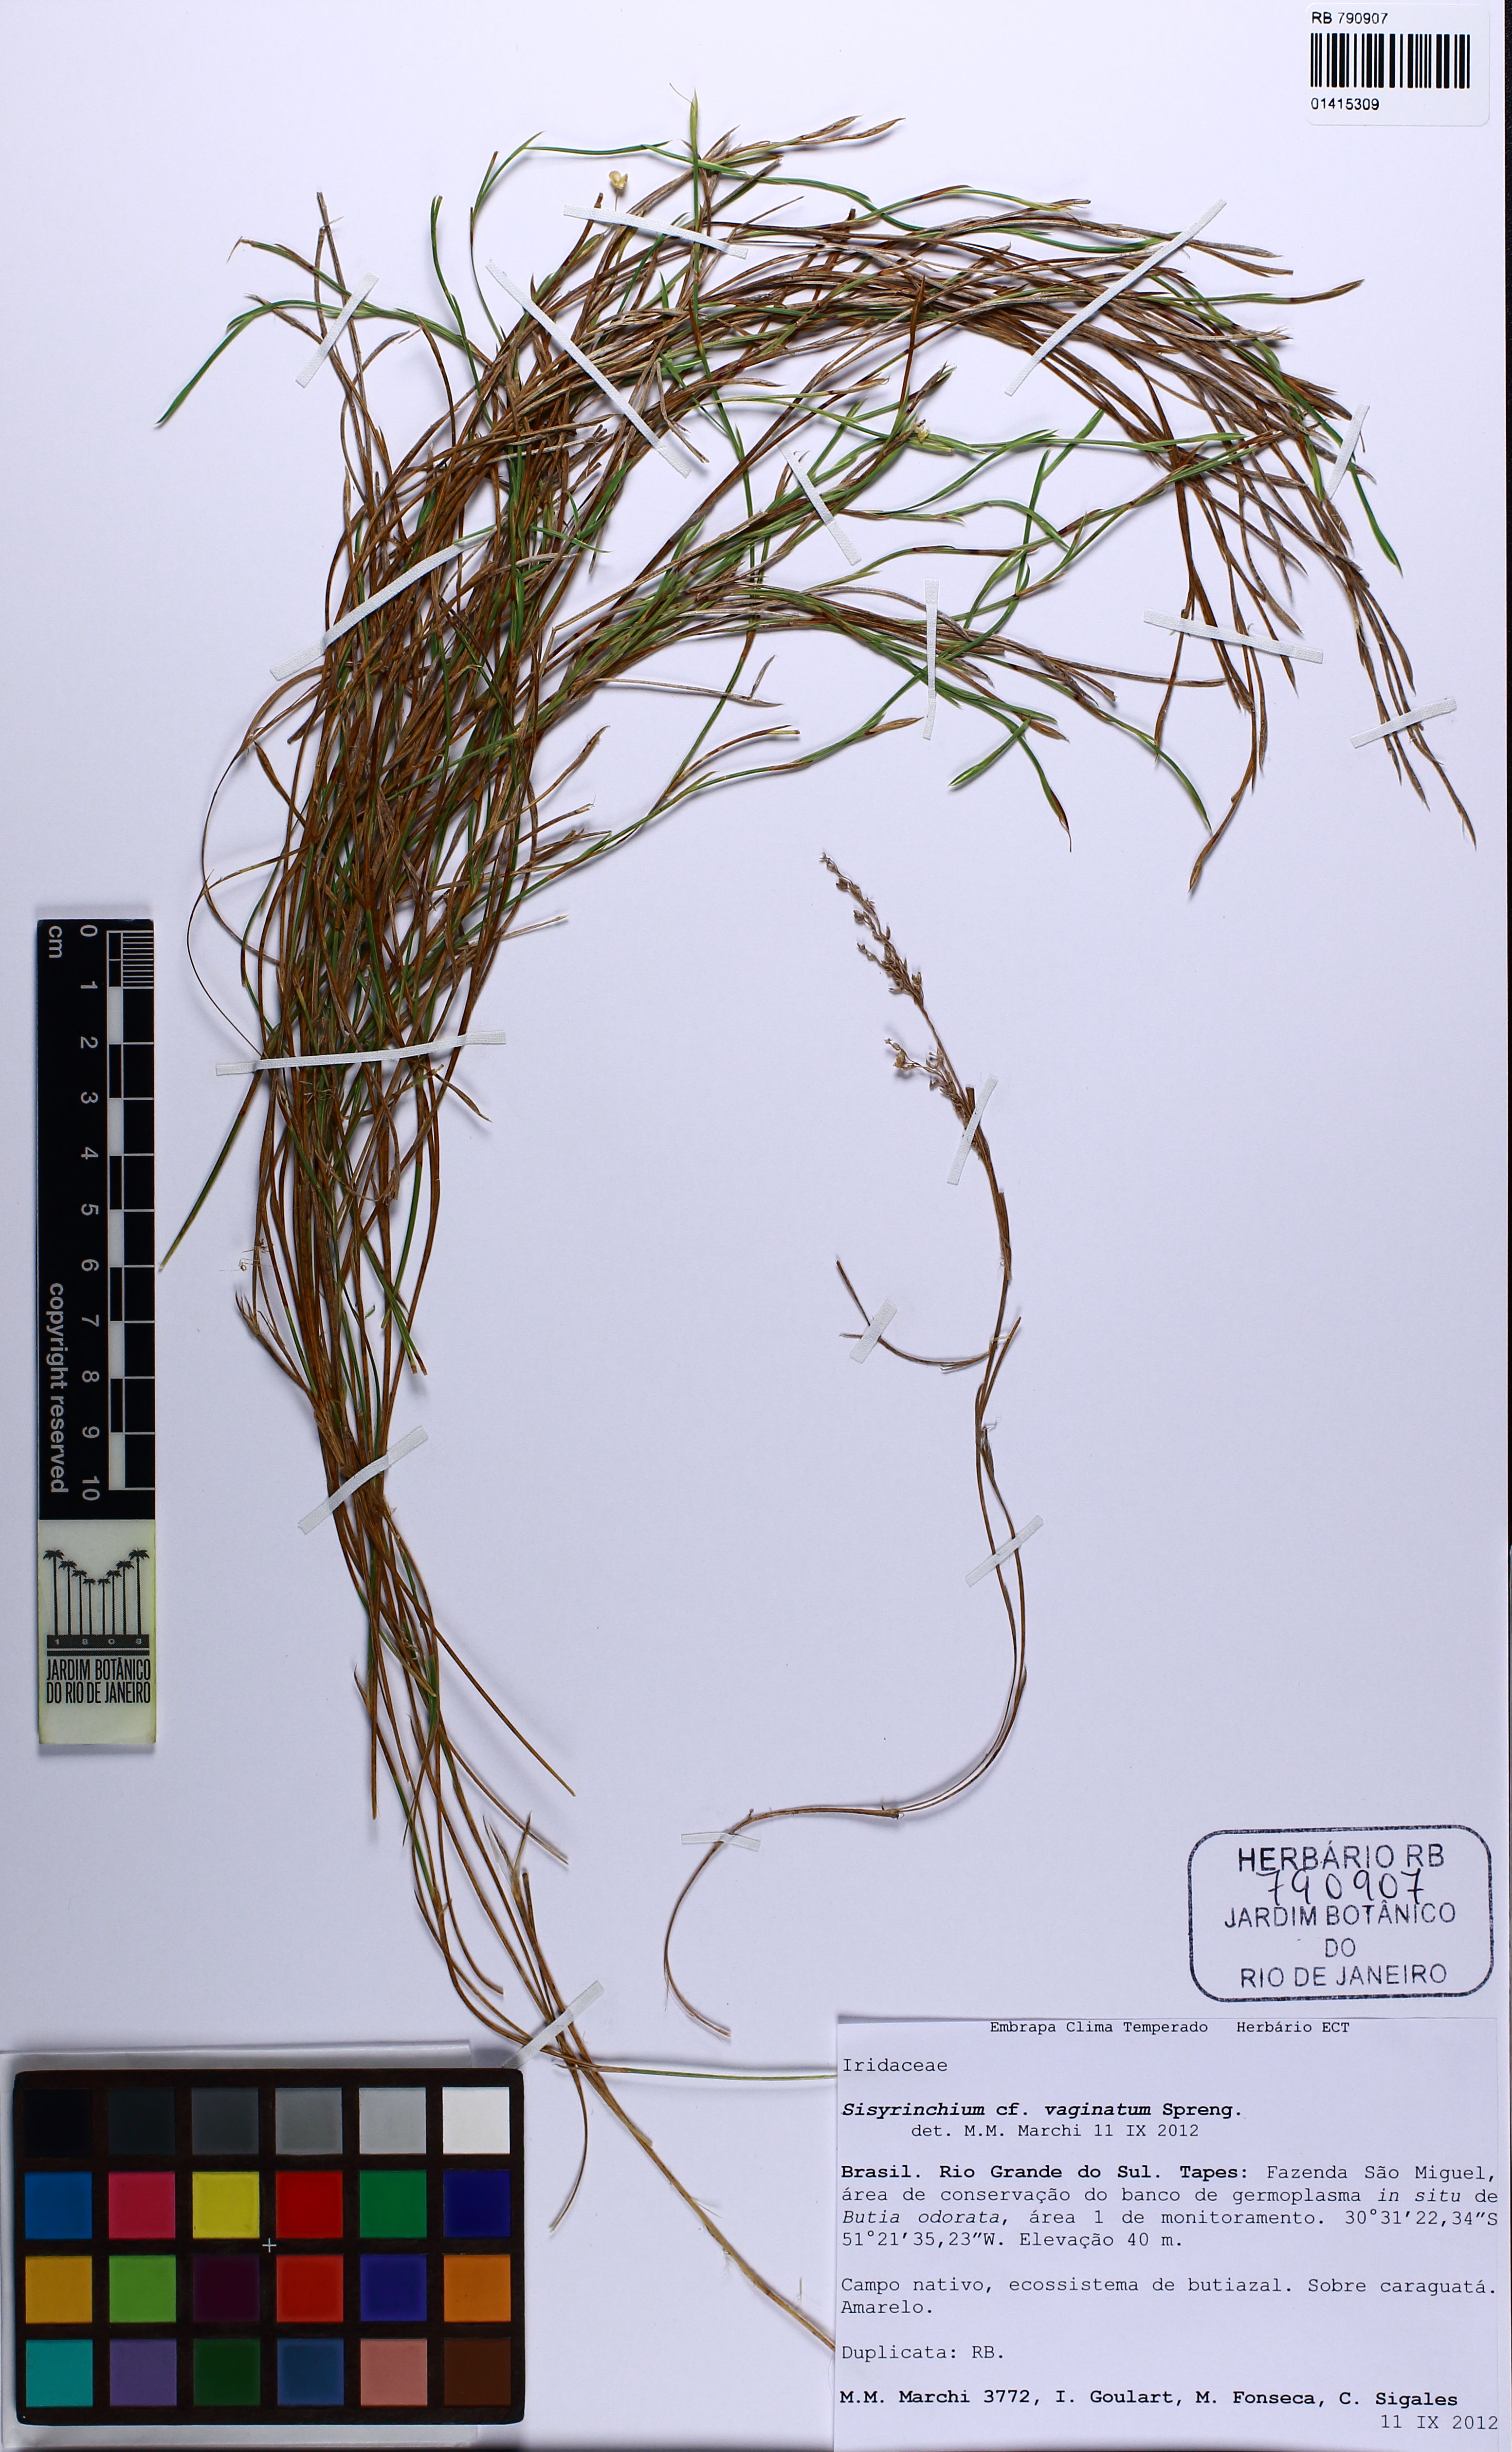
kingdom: Plantae
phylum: Tracheophyta
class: Liliopsida
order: Asparagales
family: Iridaceae
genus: Sisyrinchium
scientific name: Sisyrinchium vaginatum
